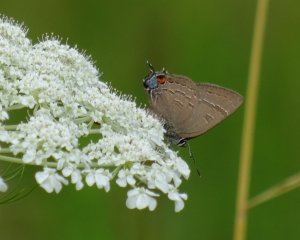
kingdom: Animalia
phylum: Arthropoda
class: Insecta
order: Lepidoptera
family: Lycaenidae
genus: Satyrium
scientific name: Satyrium calanus
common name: Banded Hairstreak
